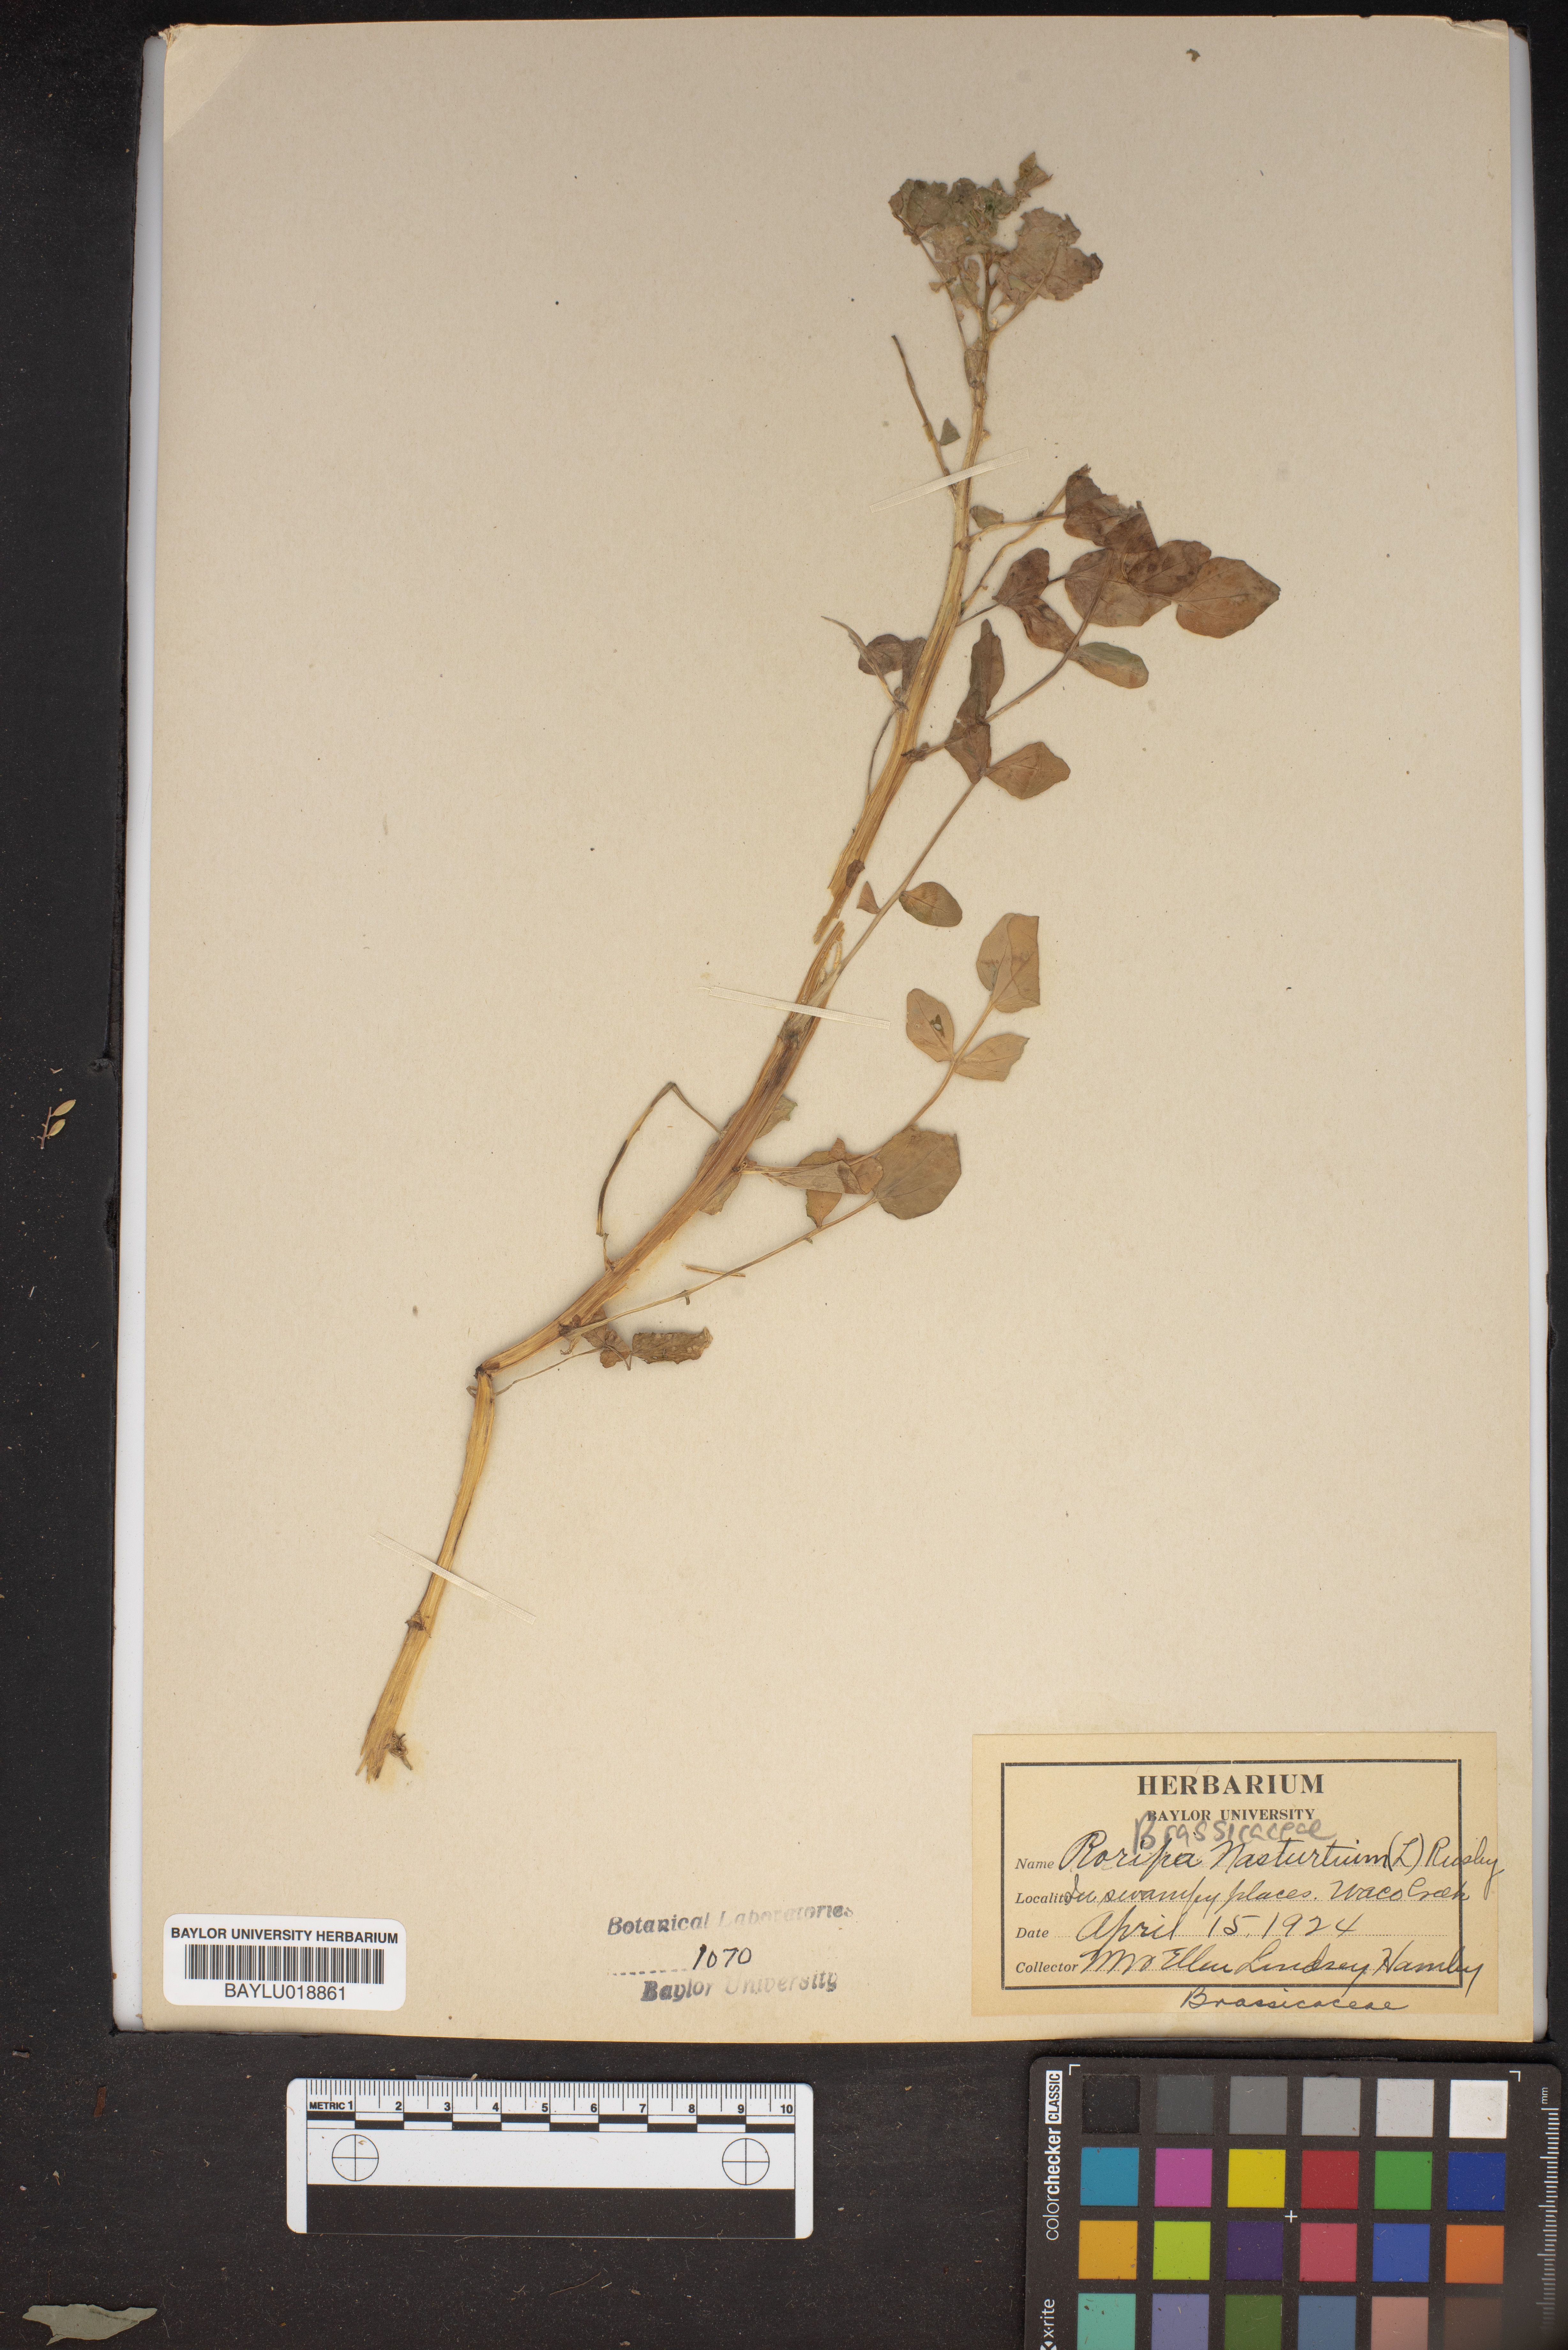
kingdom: Plantae
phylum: Tracheophyta
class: Magnoliopsida
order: Brassicales
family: Brassicaceae
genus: Nasturtium
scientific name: Nasturtium officinale
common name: Watercress
